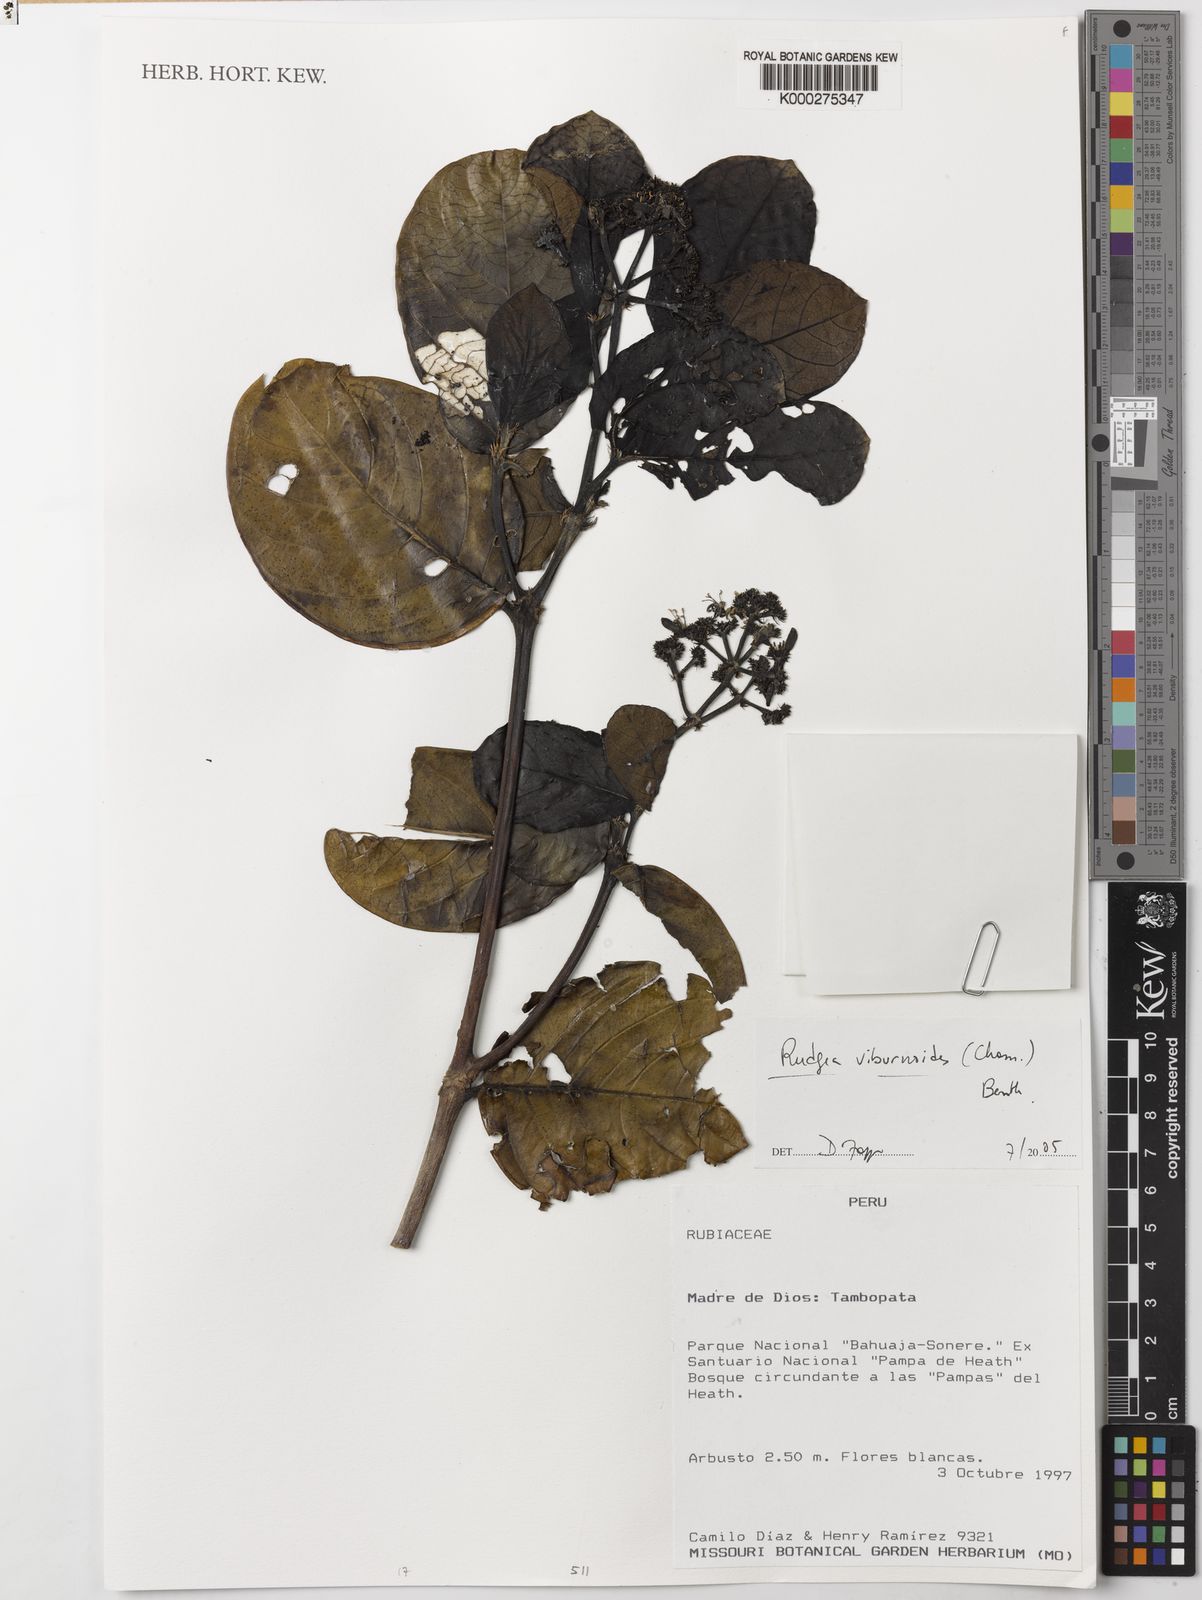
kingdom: Plantae
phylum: Tracheophyta
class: Magnoliopsida
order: Gentianales
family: Rubiaceae
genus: Rudgea
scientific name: Rudgea viburnoides
